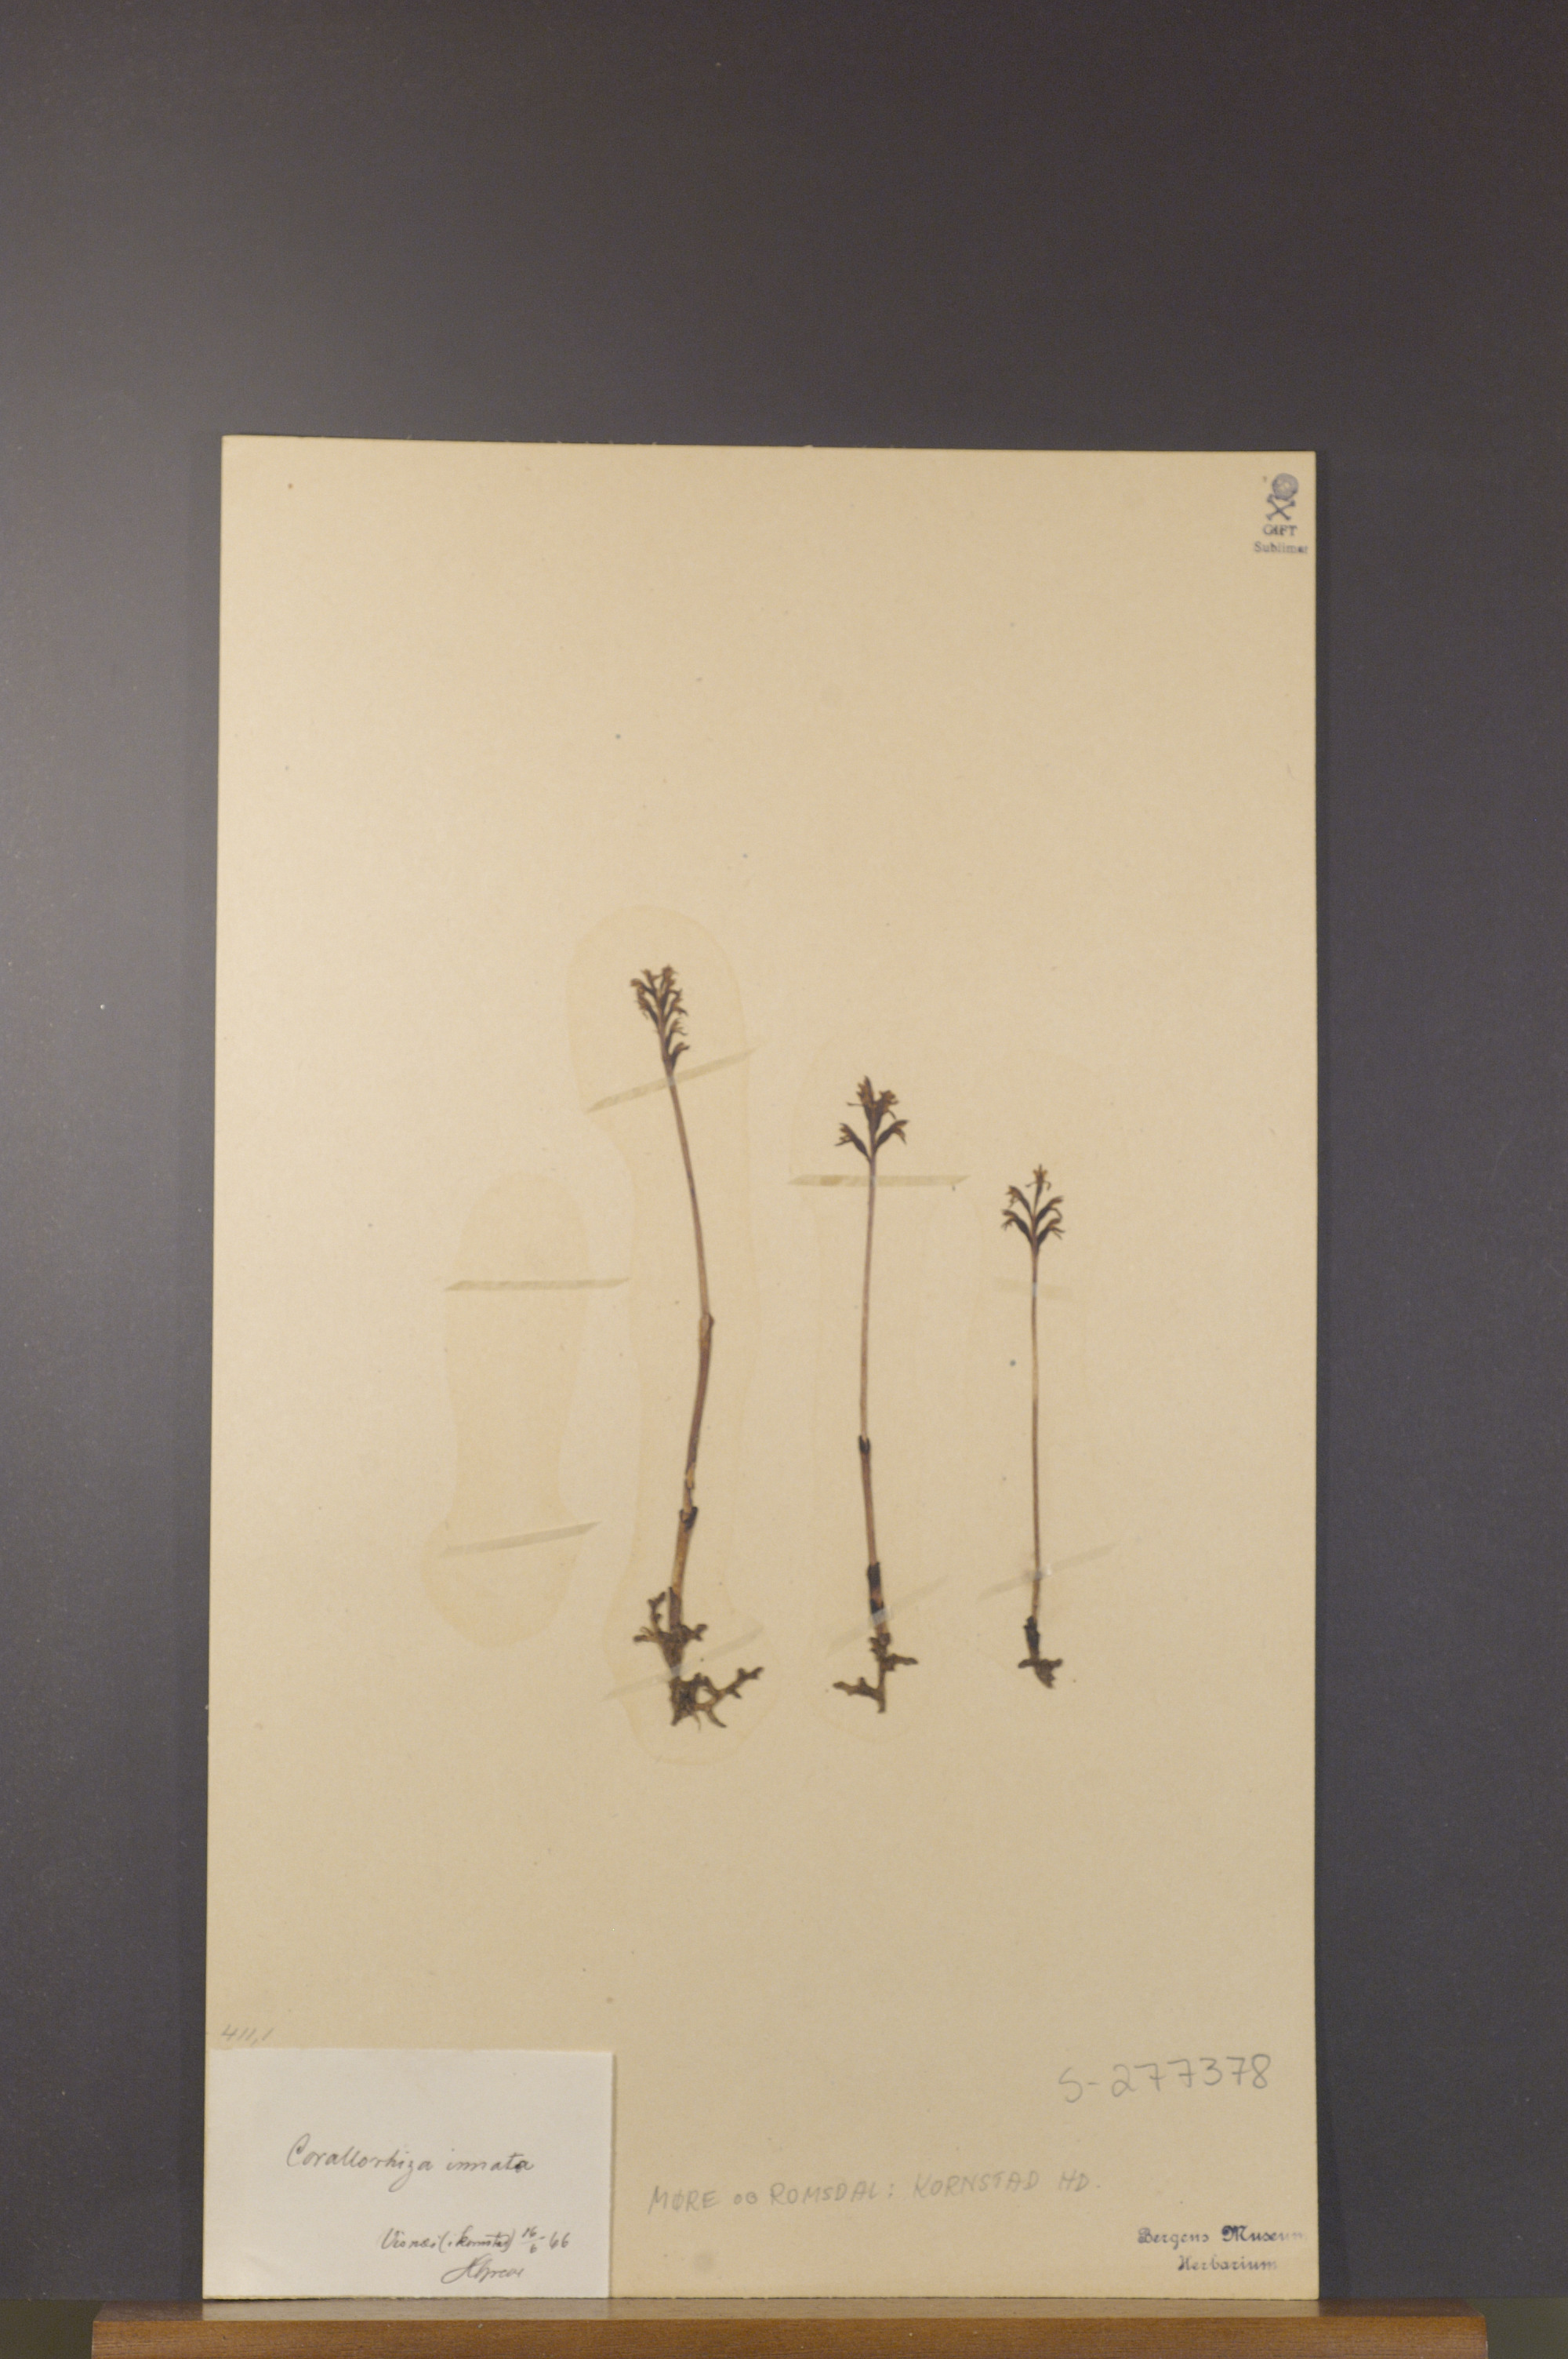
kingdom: Plantae
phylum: Tracheophyta
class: Liliopsida
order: Asparagales
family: Orchidaceae
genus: Corallorhiza
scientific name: Corallorhiza trifida
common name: Yellow coralroot
